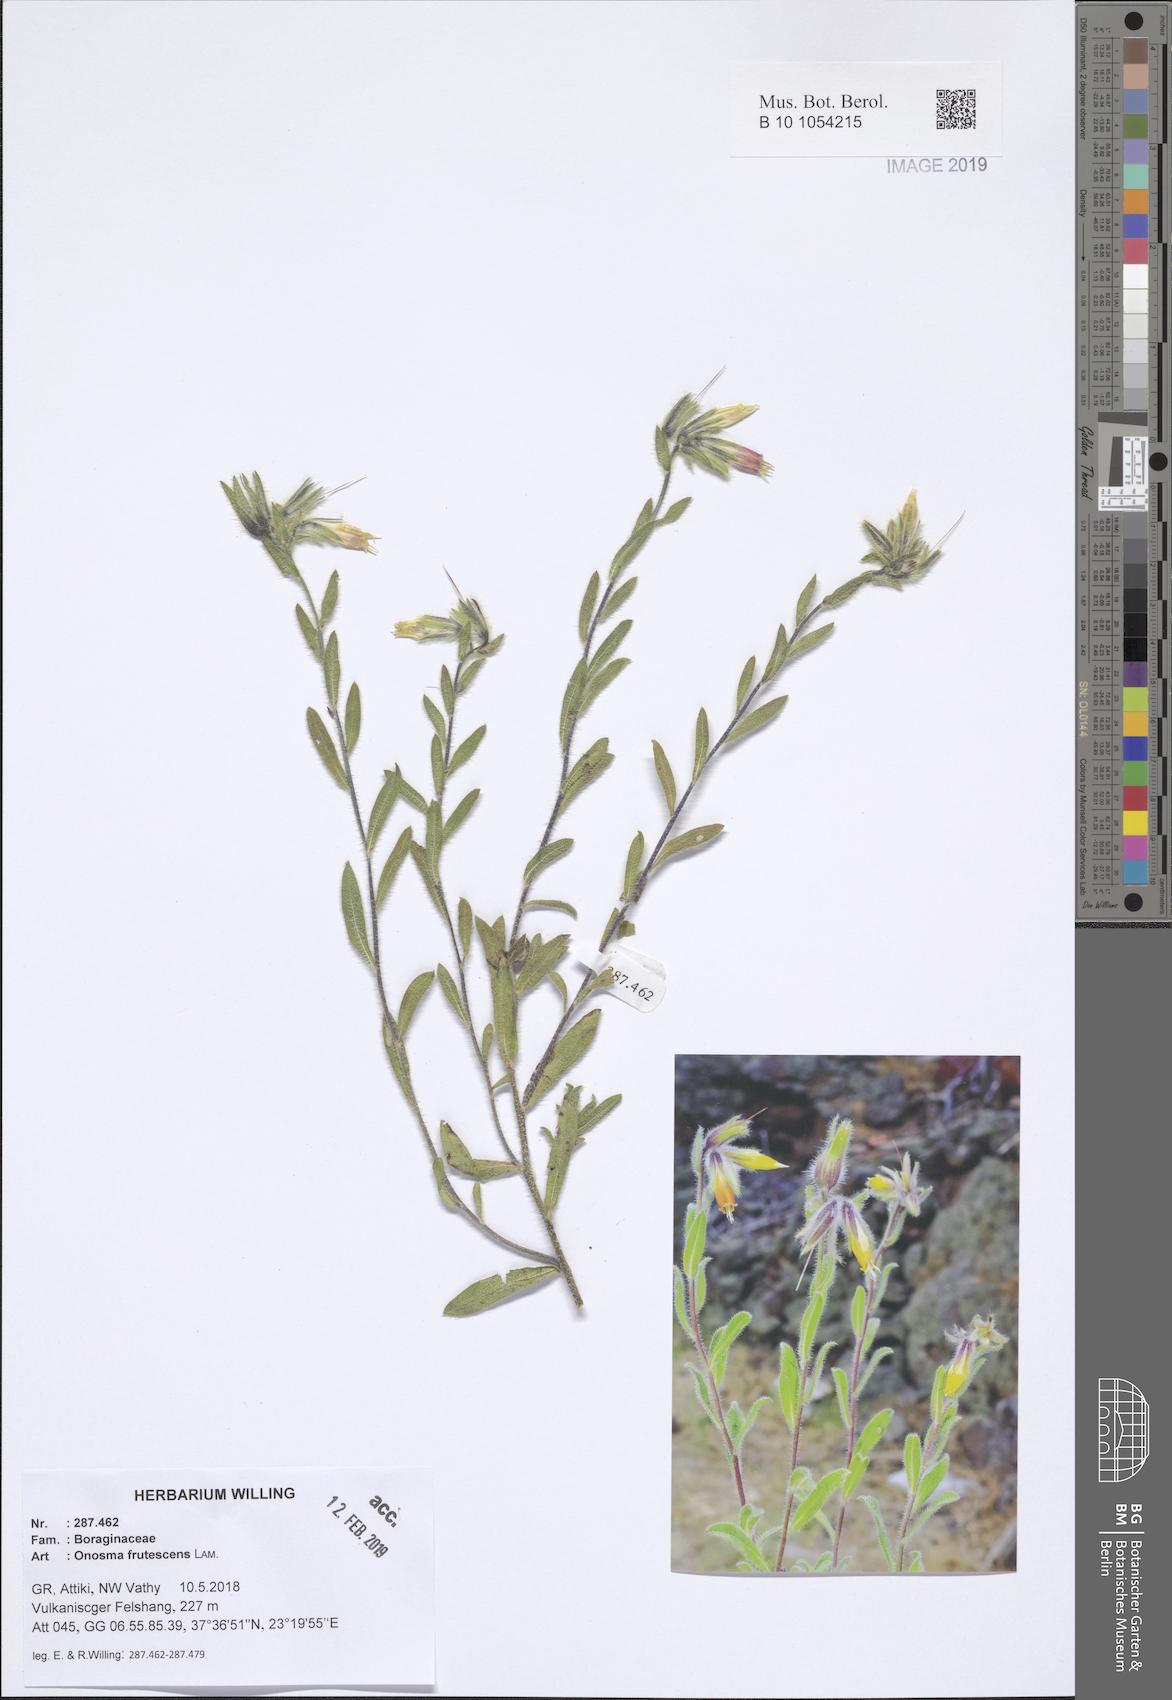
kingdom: Plantae
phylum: Tracheophyta
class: Magnoliopsida
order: Boraginales
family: Boraginaceae
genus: Onosma
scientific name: Onosma frutescens
